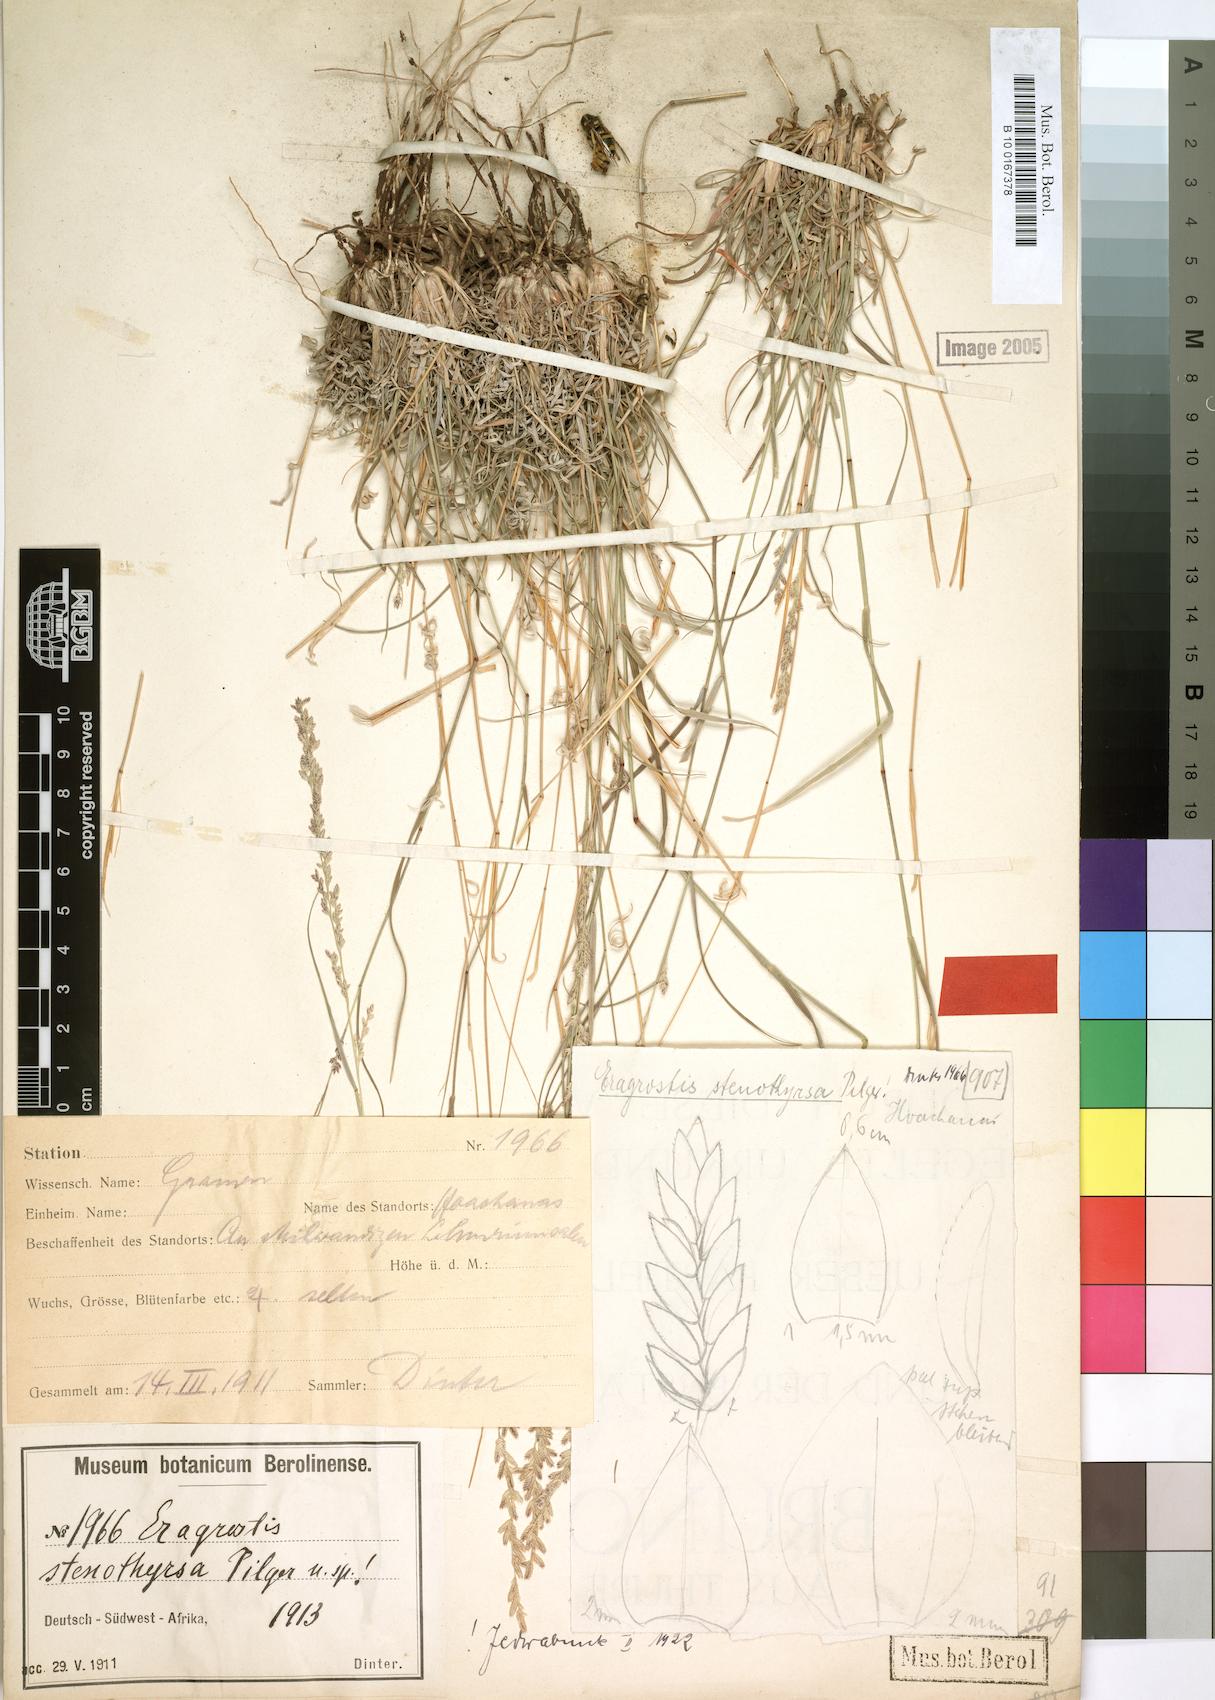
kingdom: Plantae
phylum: Tracheophyta
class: Liliopsida
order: Poales
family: Poaceae
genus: Eragrostis
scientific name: Eragrostis stenothyrsa
